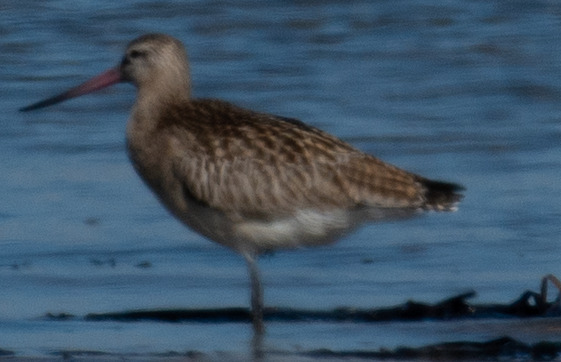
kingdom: Animalia
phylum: Chordata
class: Aves
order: Charadriiformes
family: Scolopacidae
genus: Limosa
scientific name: Limosa lapponica
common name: Lille kobbersneppe
